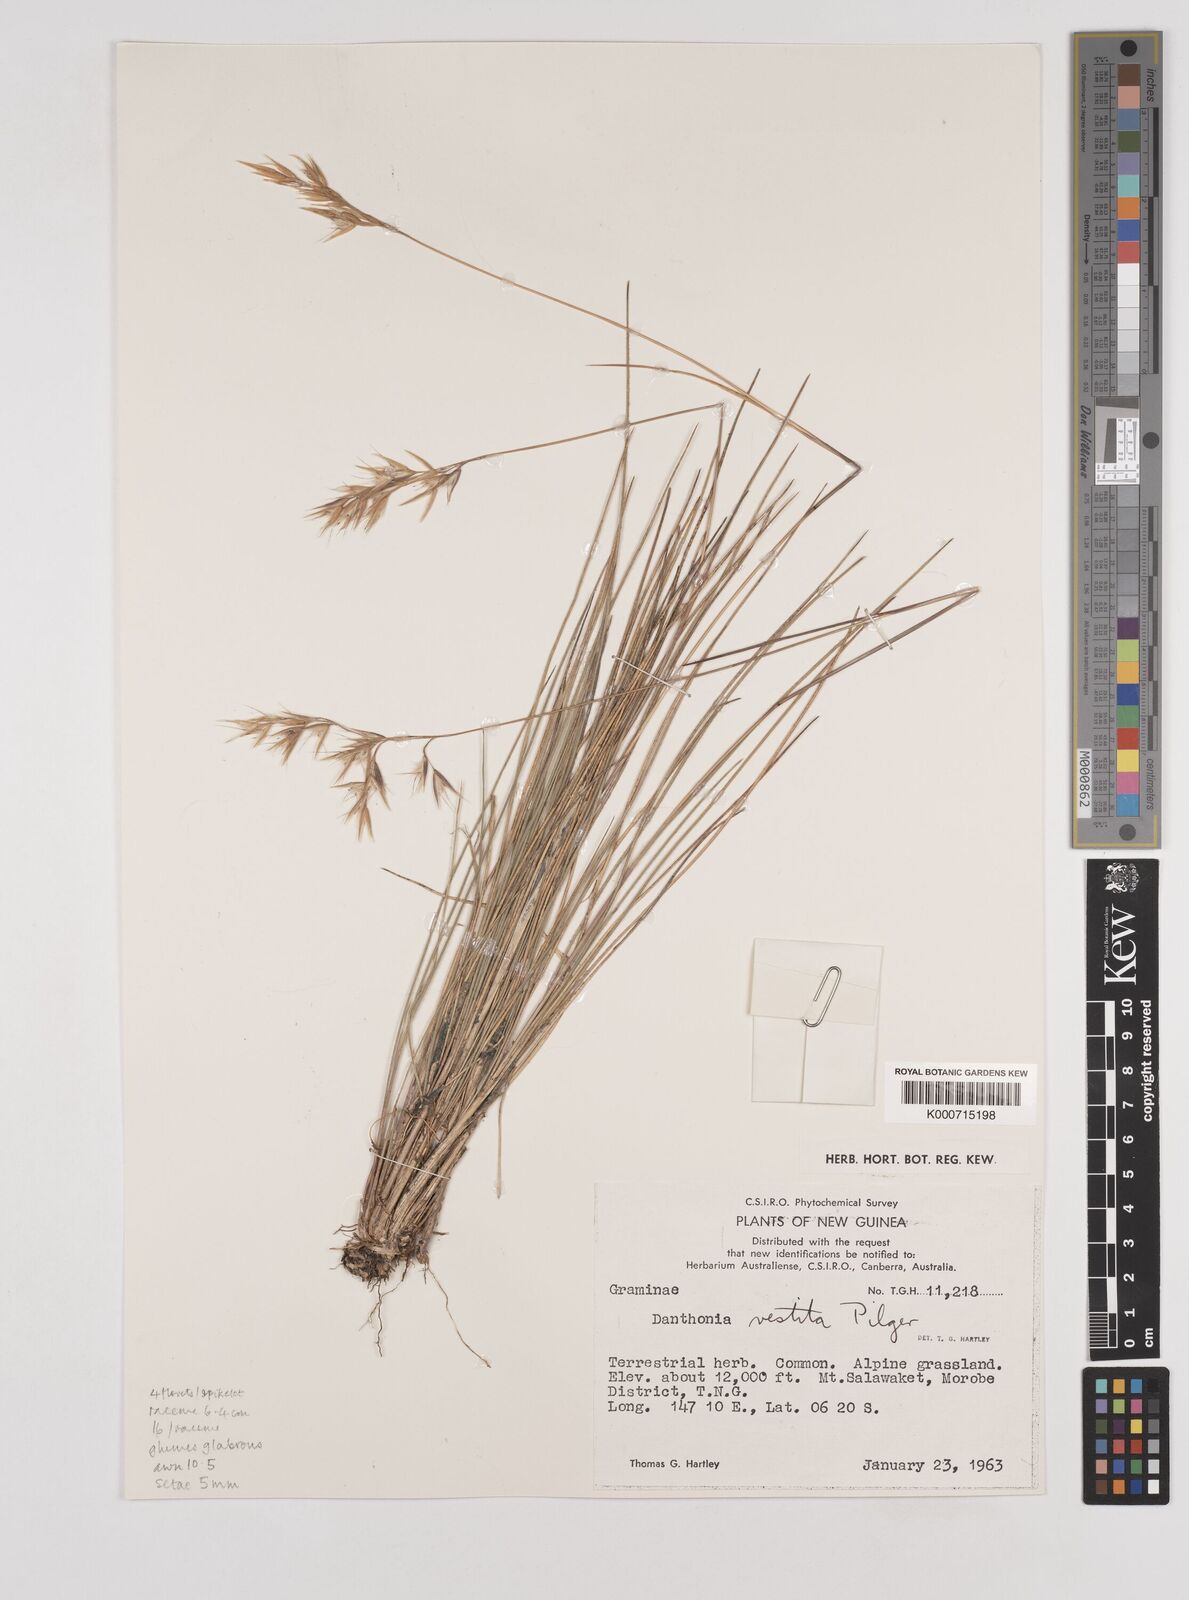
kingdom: Plantae
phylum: Tracheophyta
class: Liliopsida
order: Poales
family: Poaceae
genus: Rytidosperma
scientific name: Rytidosperma vestitum
